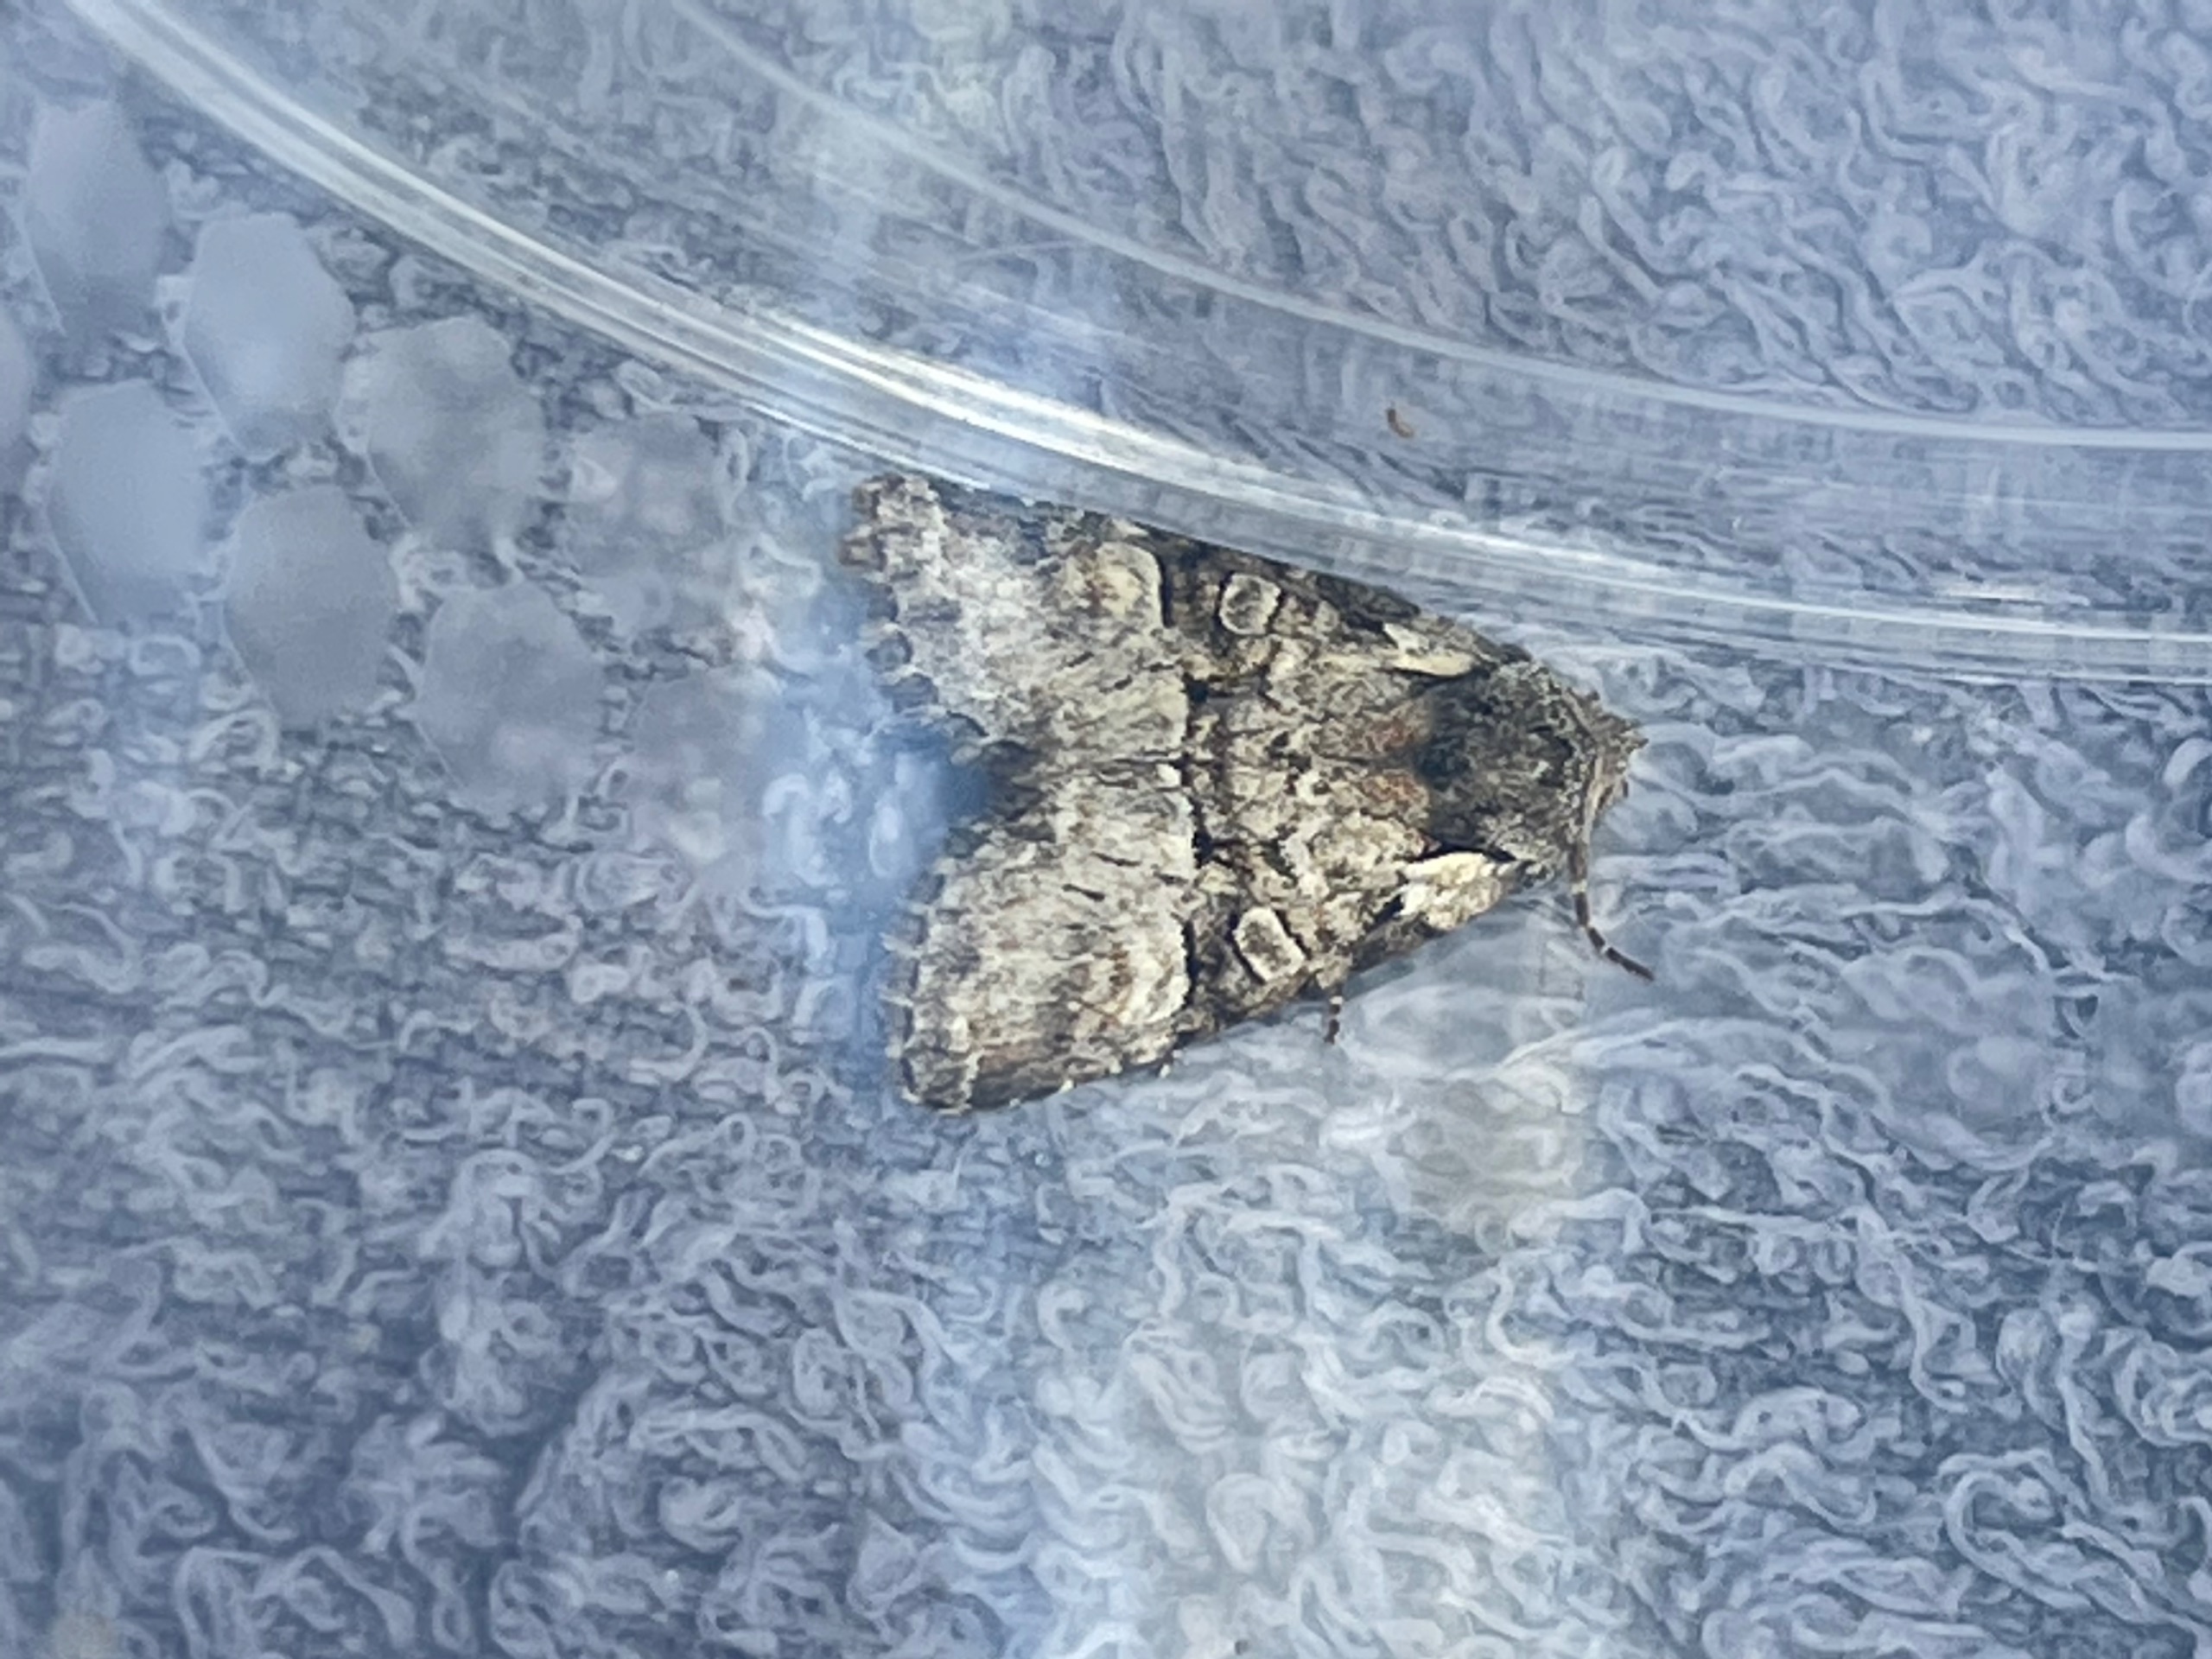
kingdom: Animalia
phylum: Arthropoda
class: Insecta
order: Lepidoptera
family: Noctuidae
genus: Brachylomia
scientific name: Brachylomia viminalis
